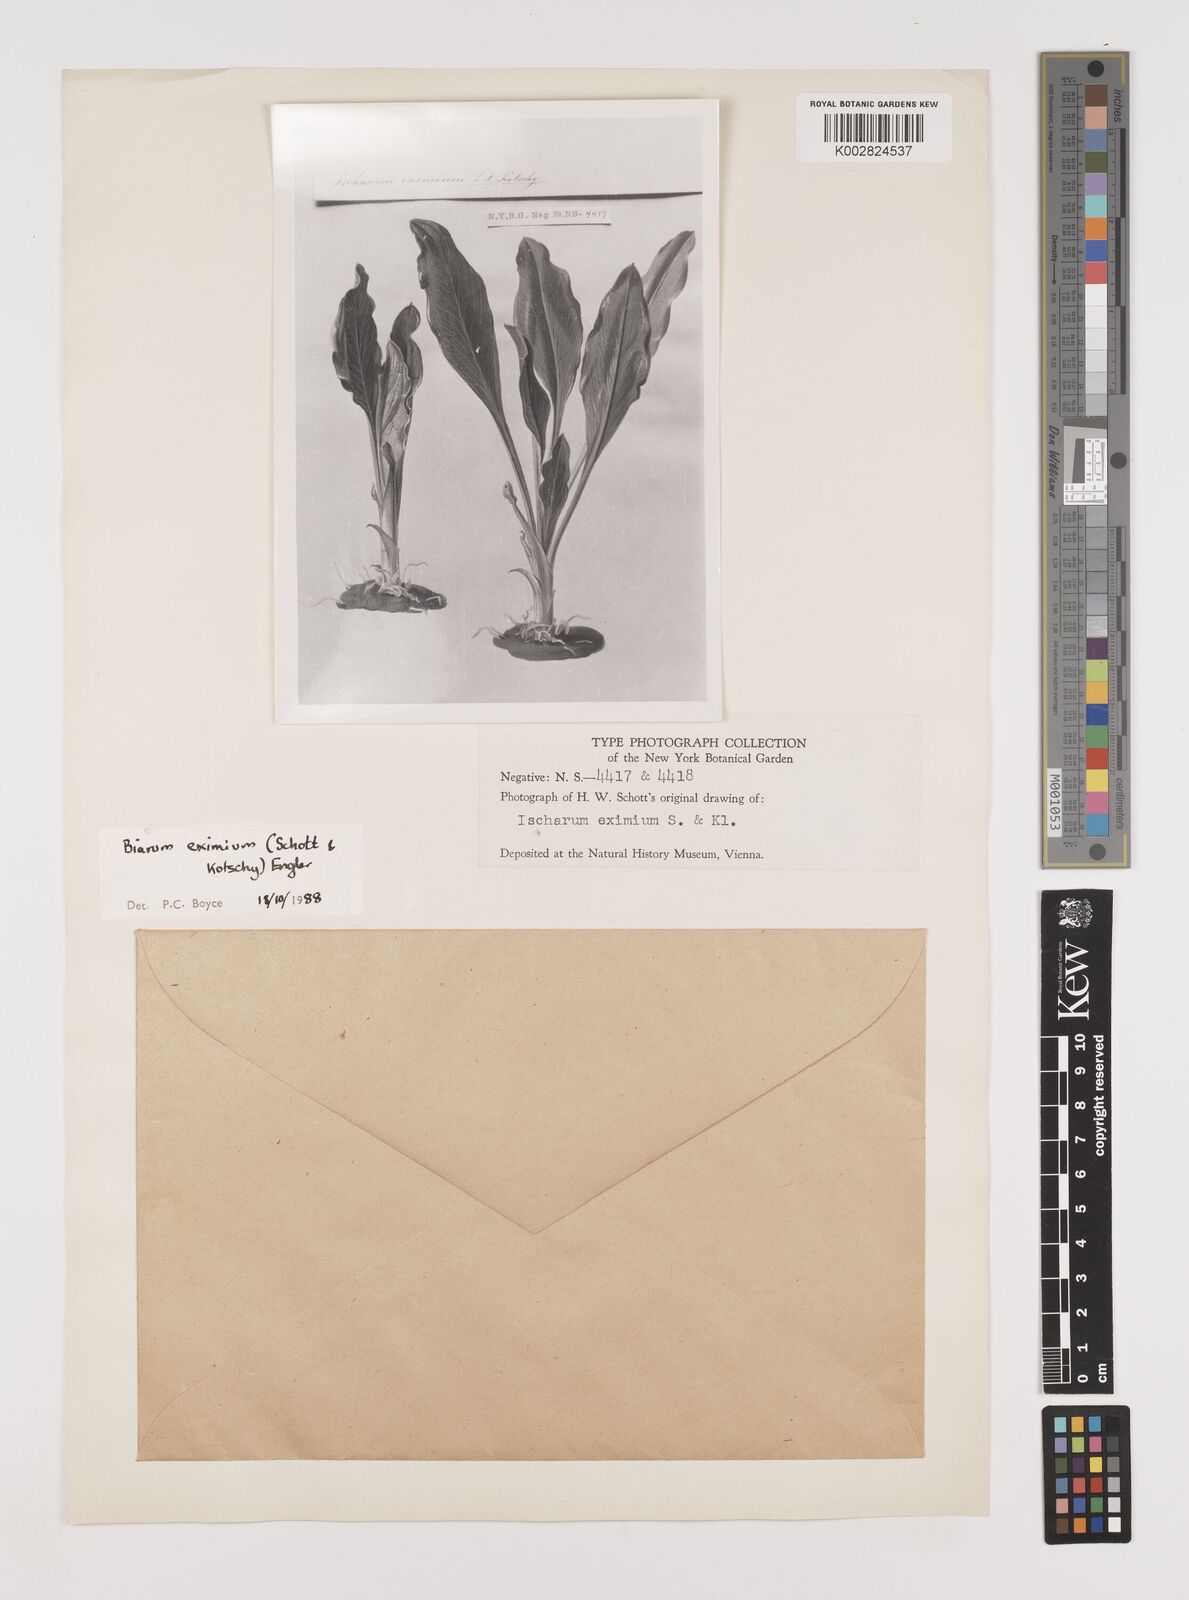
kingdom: Plantae
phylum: Tracheophyta
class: Liliopsida
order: Alismatales
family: Araceae
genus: Biarum
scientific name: Biarum eximium
